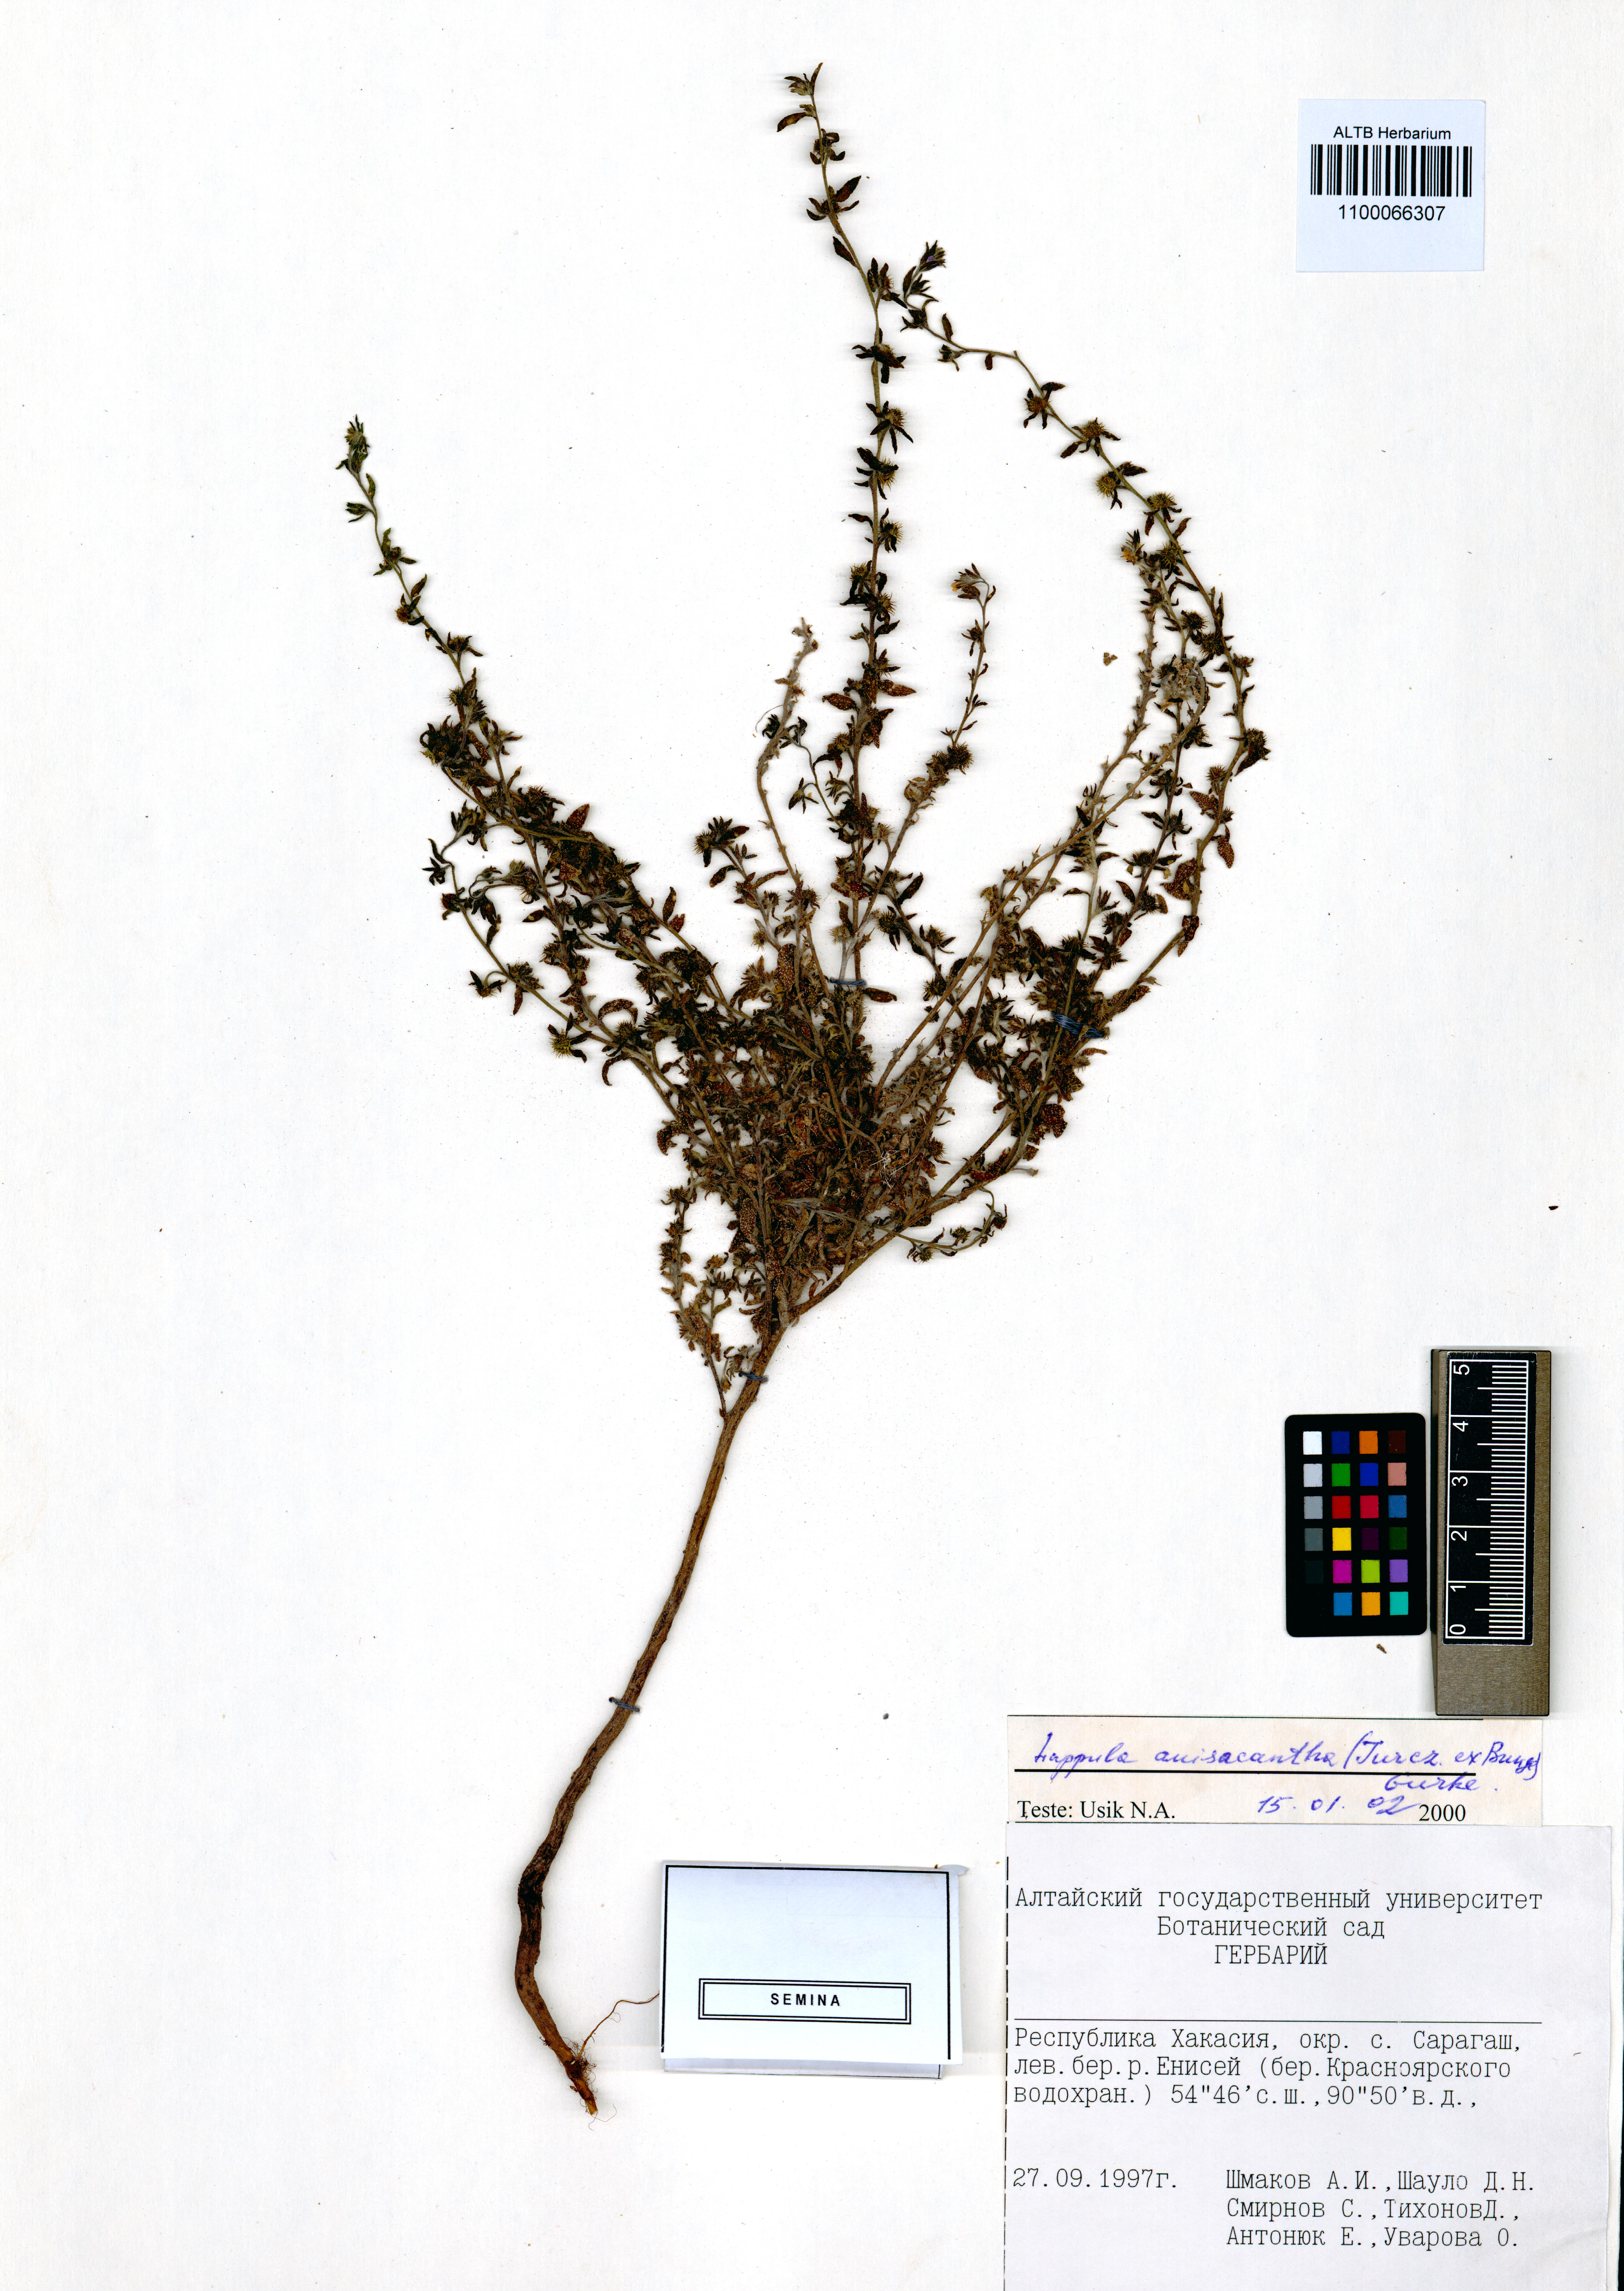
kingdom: Plantae
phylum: Tracheophyta
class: Magnoliopsida
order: Boraginales
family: Boraginaceae
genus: Lappula
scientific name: Lappula intermedia
